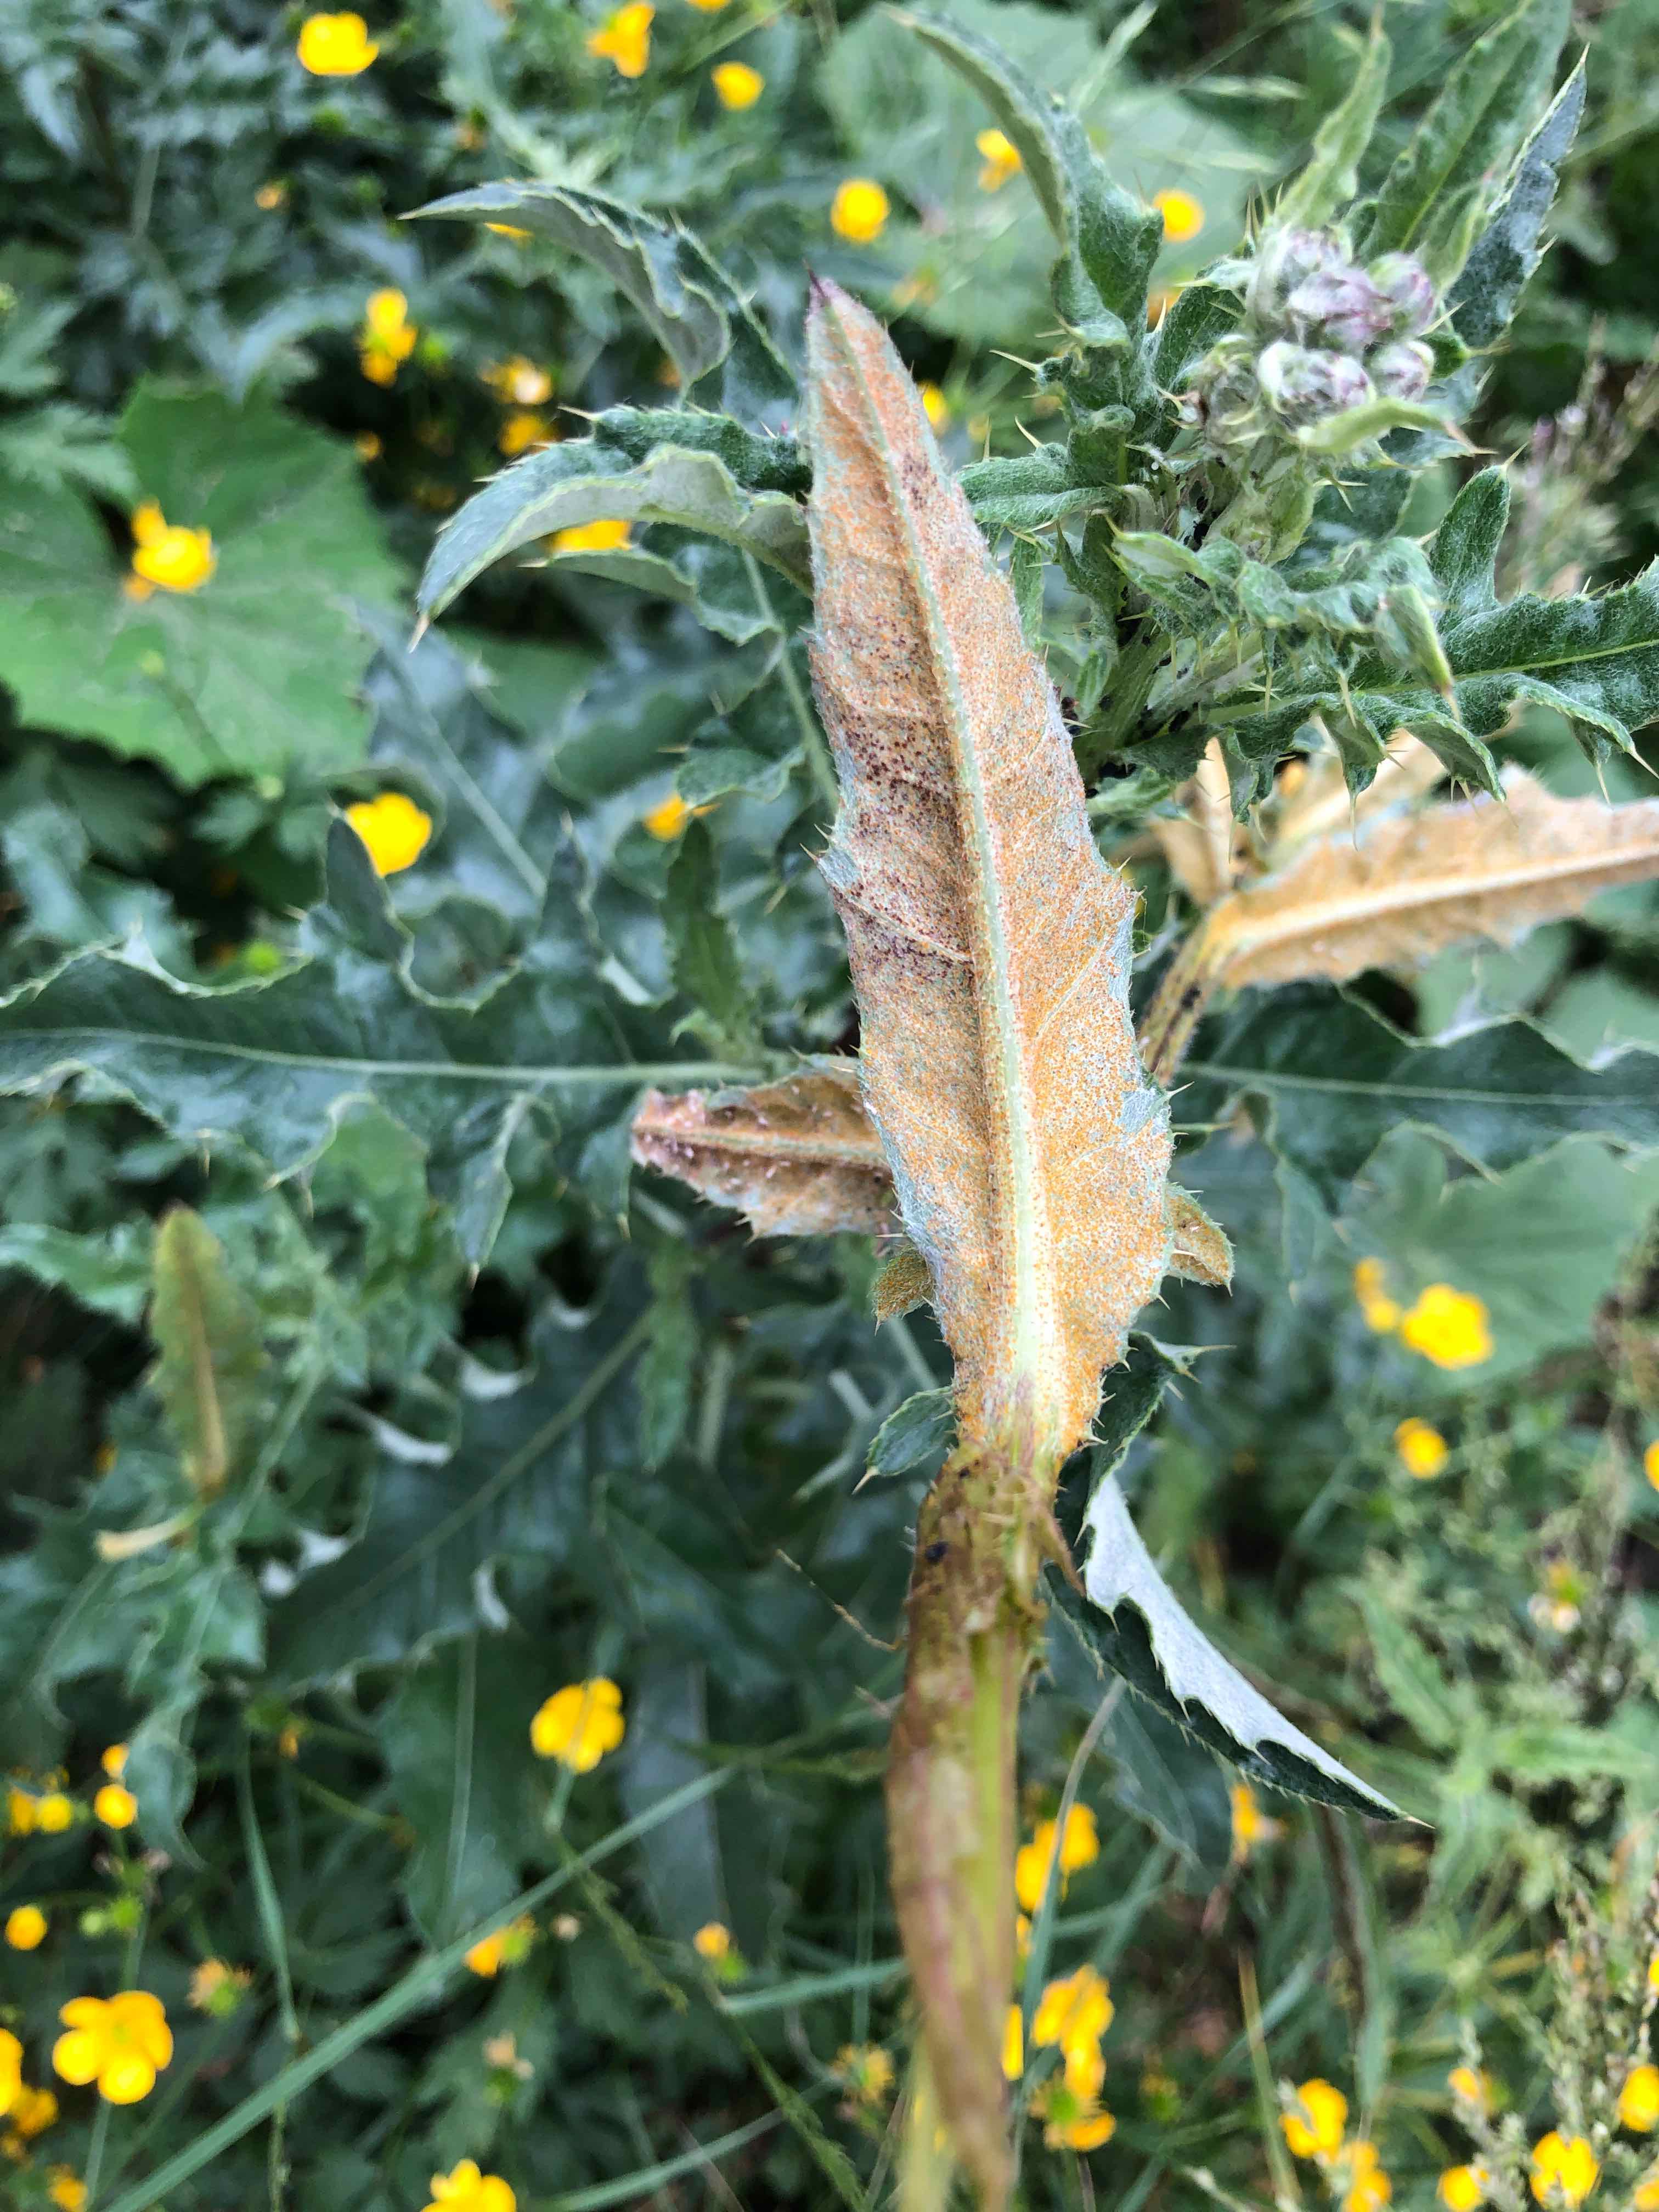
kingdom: Fungi
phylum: Basidiomycota
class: Pucciniomycetes
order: Pucciniales
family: Pucciniaceae
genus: Puccinia
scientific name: Puccinia suaveolens
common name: tidsel-tvecellerust
